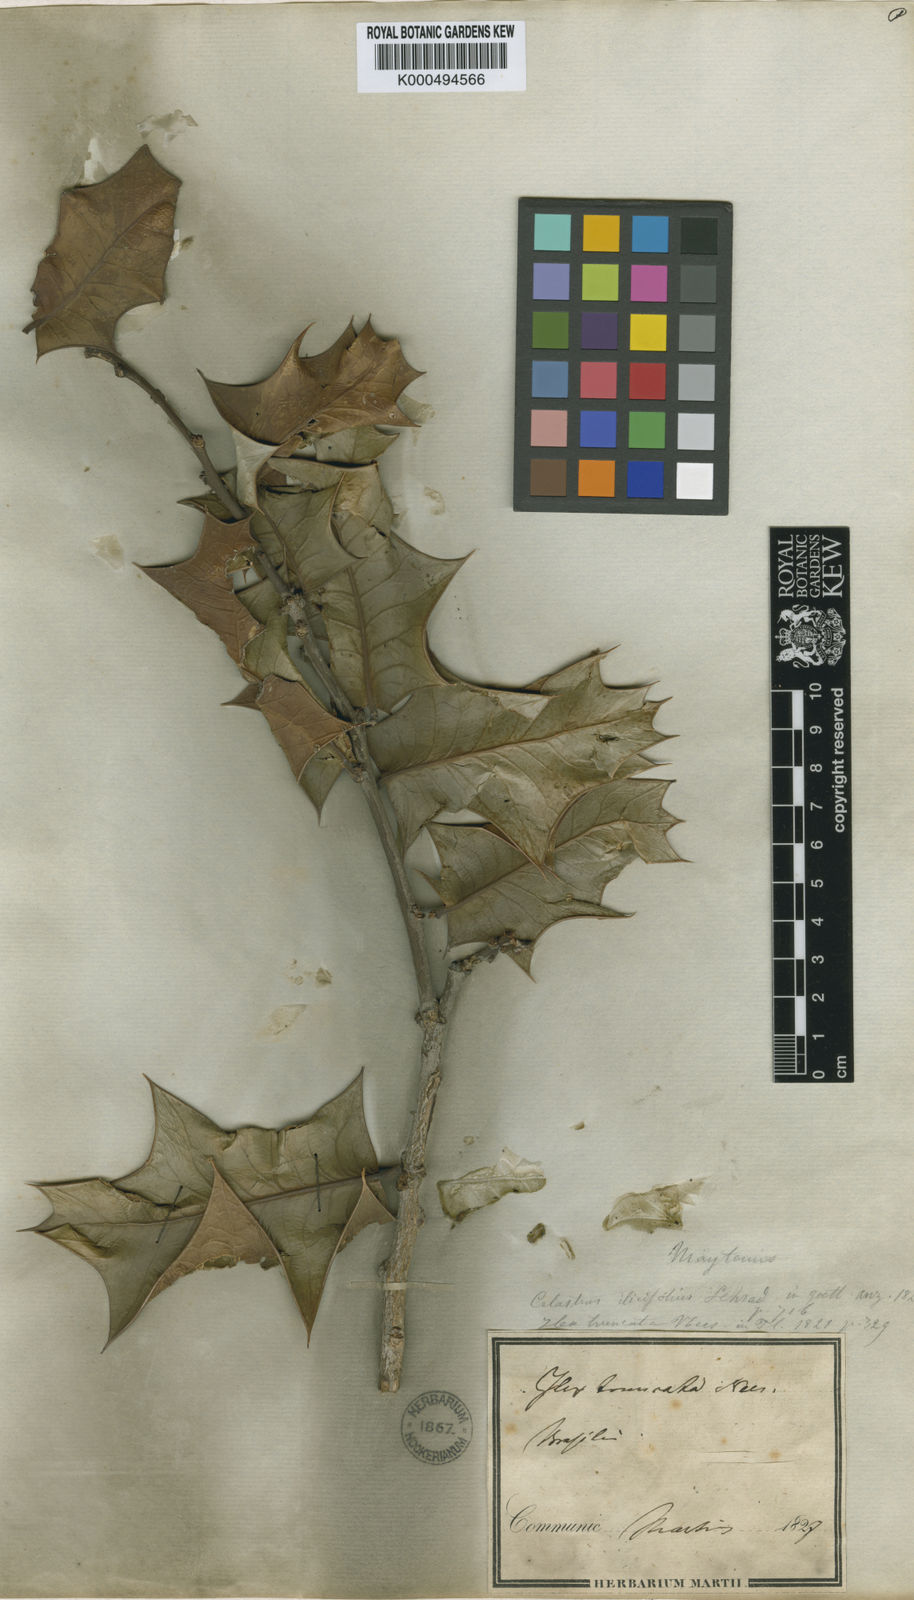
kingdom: Plantae
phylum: Tracheophyta
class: Magnoliopsida
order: Celastrales
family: Celastraceae
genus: Monteverdia
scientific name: Monteverdia truncata
